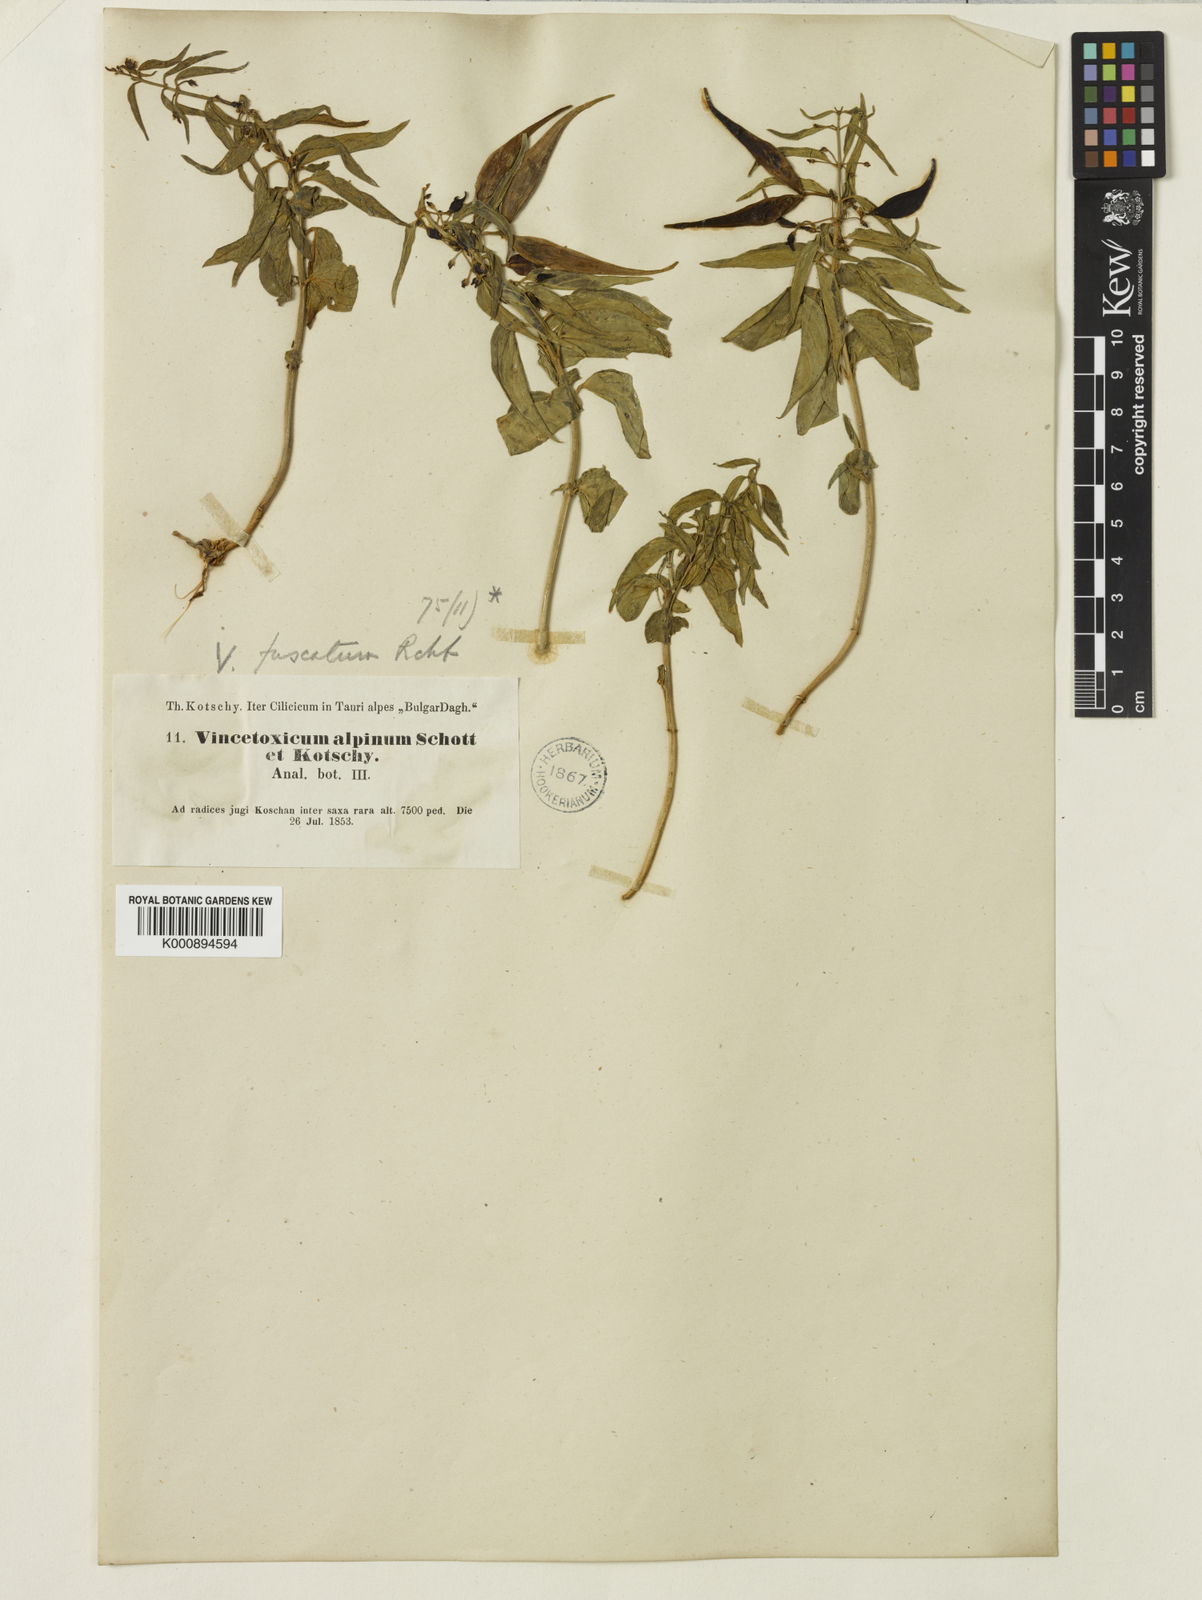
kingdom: Plantae
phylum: Tracheophyta
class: Magnoliopsida
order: Gentianales
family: Apocynaceae
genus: Vincetoxicum
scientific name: Vincetoxicum
